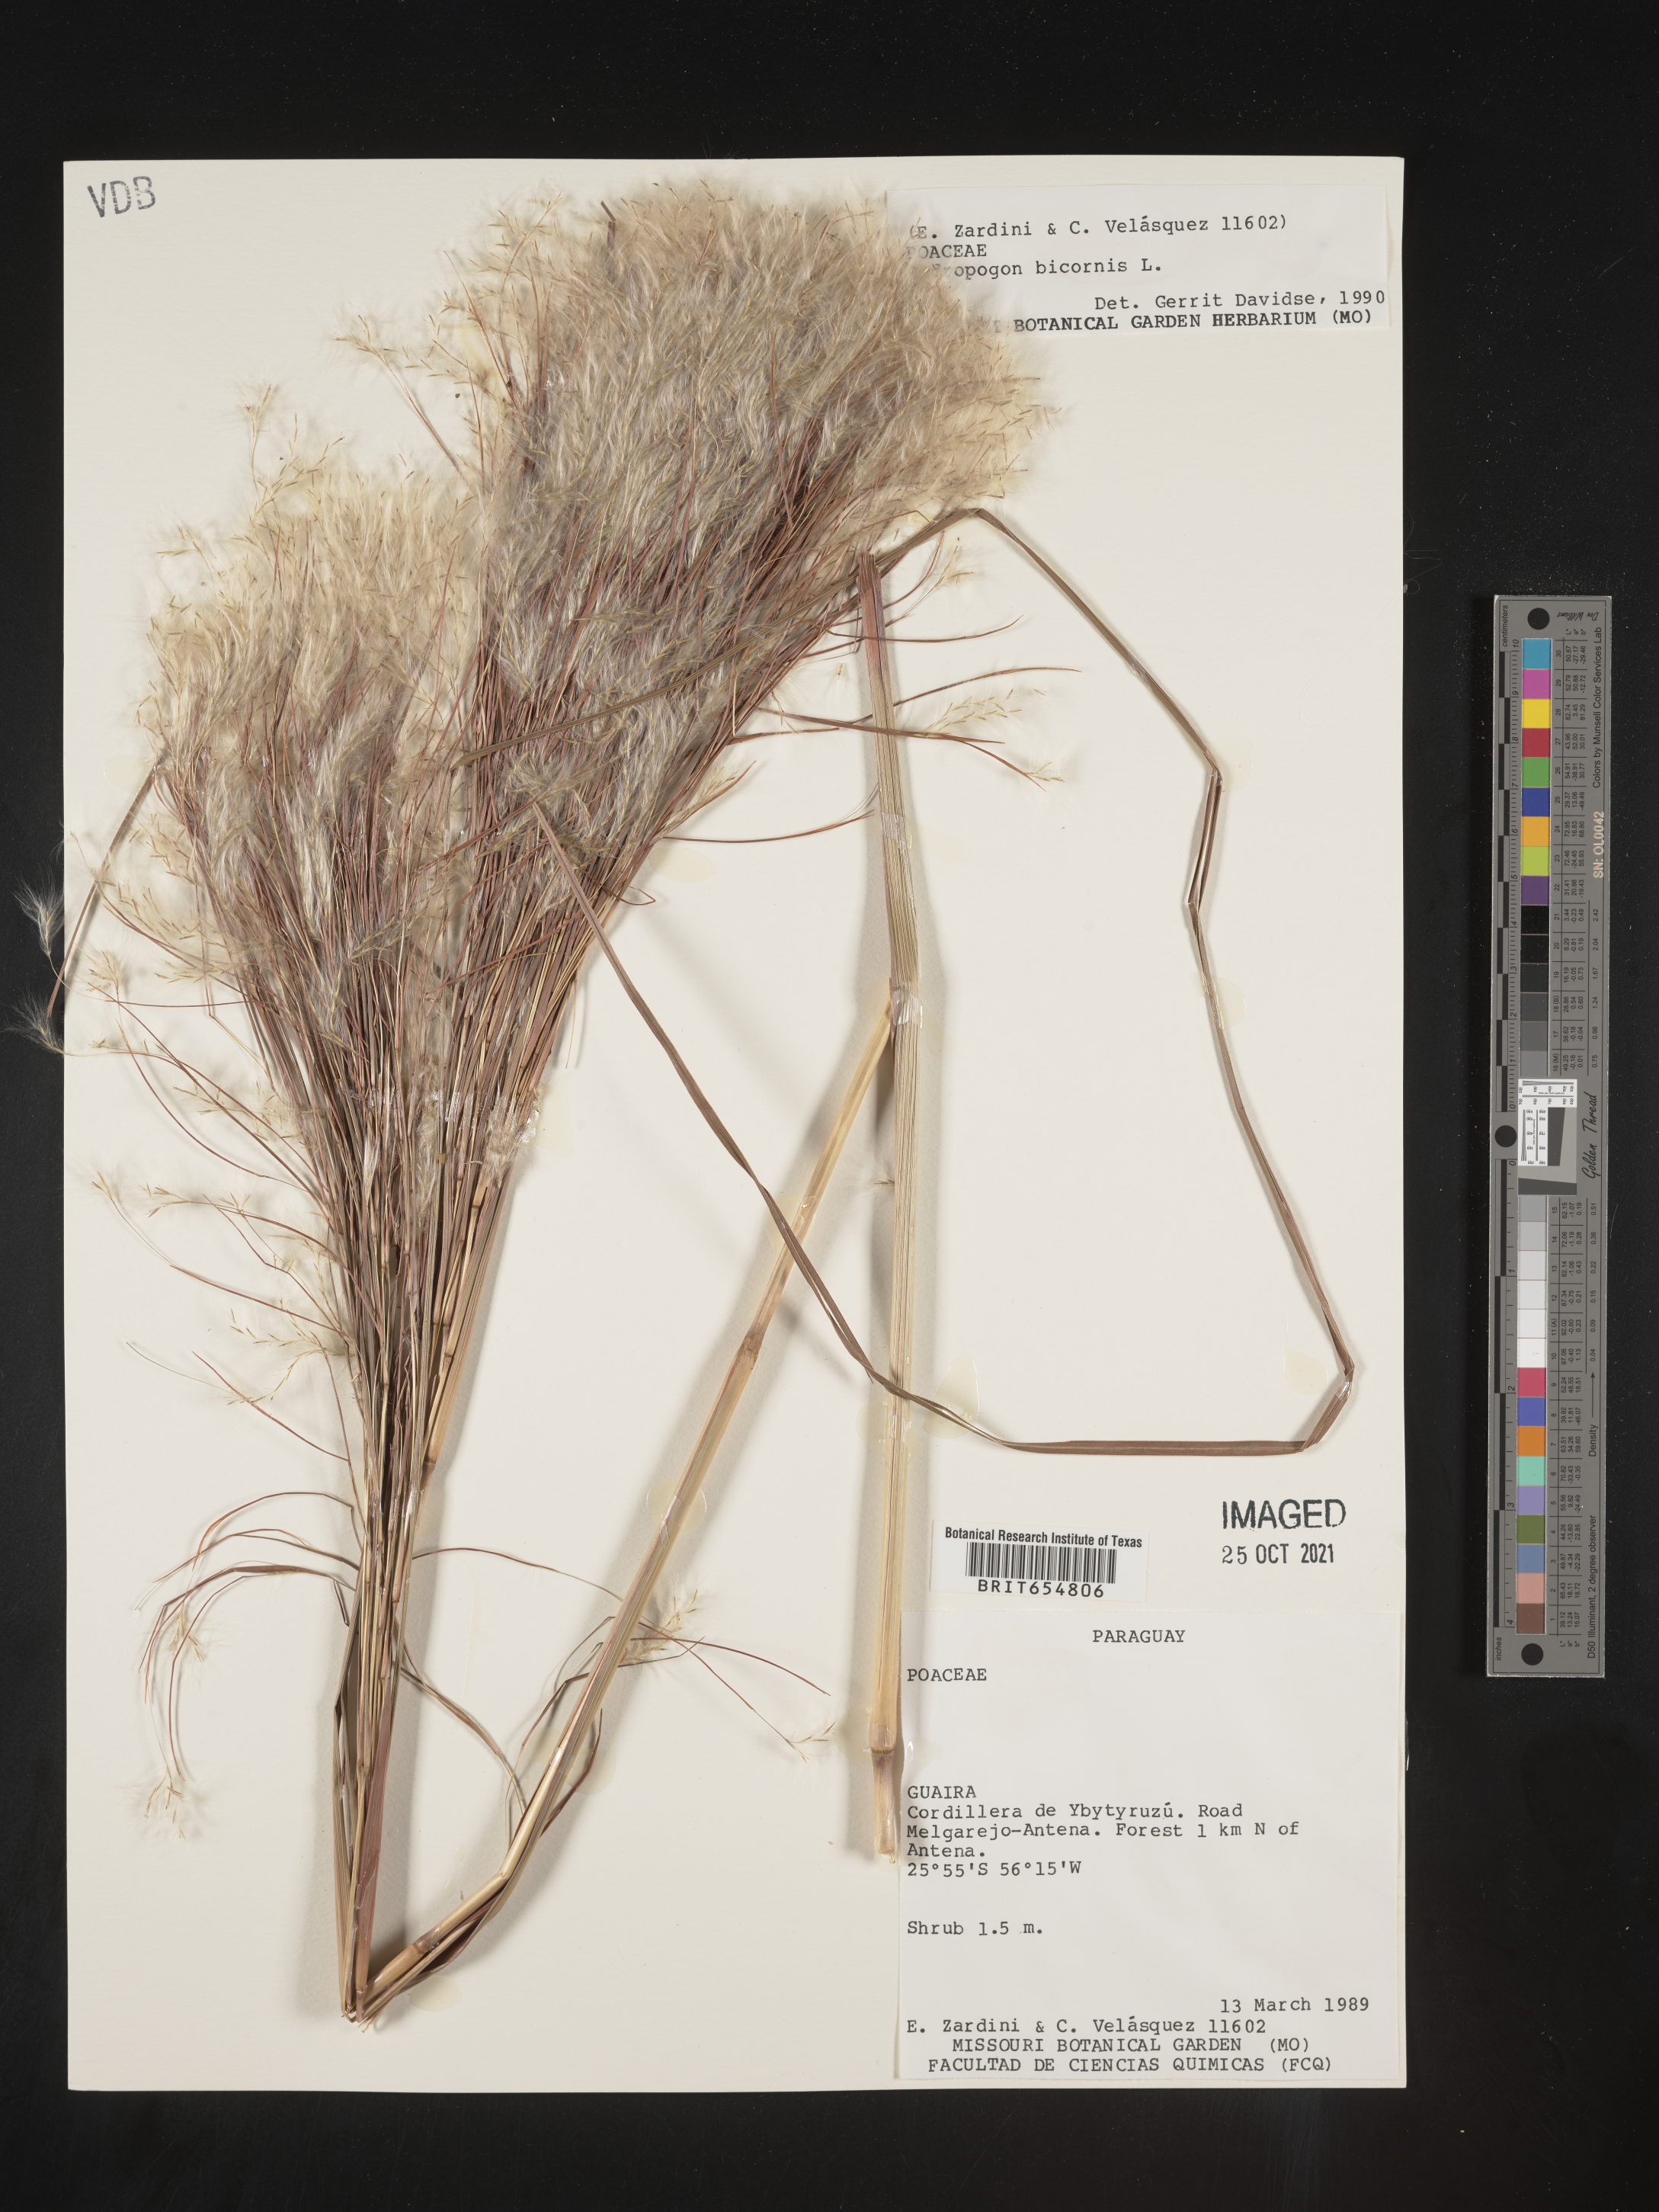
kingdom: Plantae
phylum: Tracheophyta
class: Liliopsida
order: Poales
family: Poaceae
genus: Andropogon
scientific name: Andropogon
